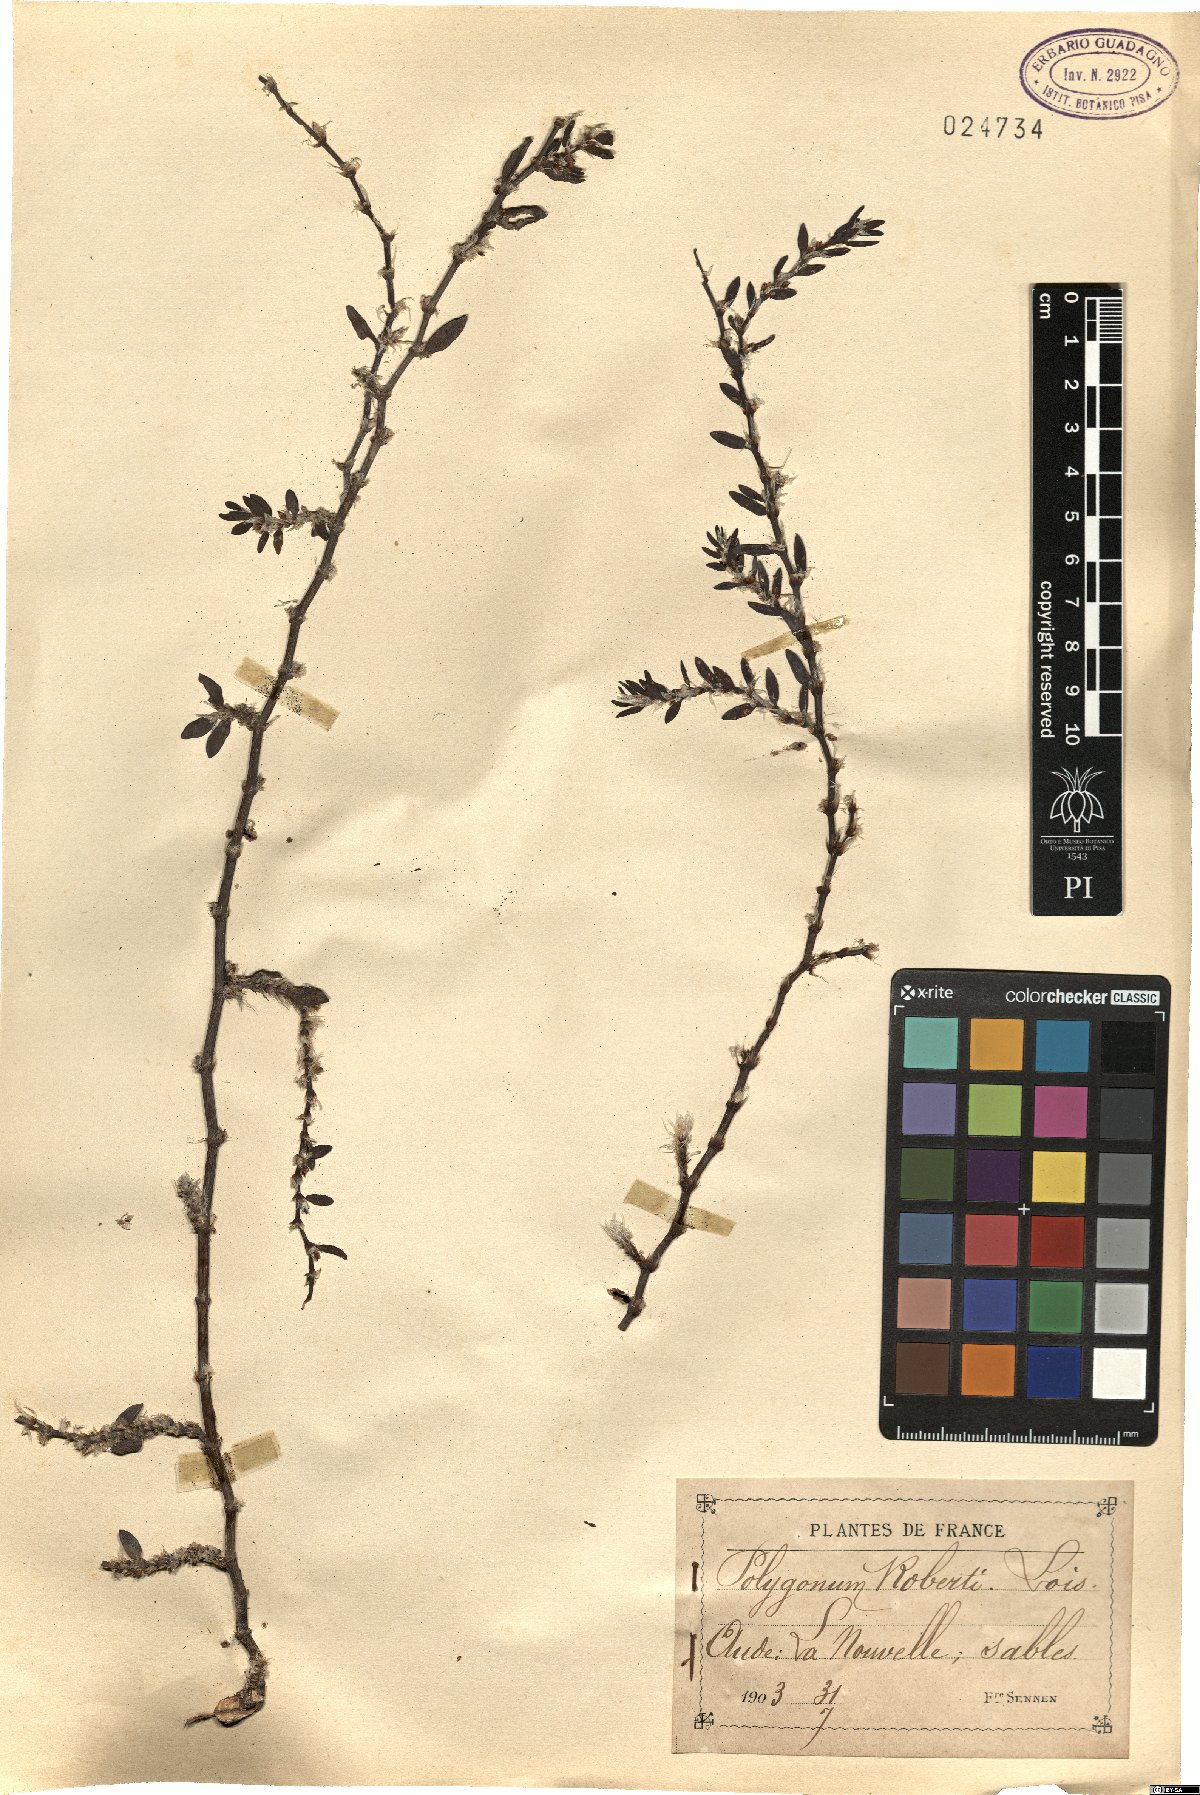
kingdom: Plantae
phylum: Tracheophyta
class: Magnoliopsida
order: Caryophyllales
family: Polygonaceae
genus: Polygonum
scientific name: Polygonum roberti
